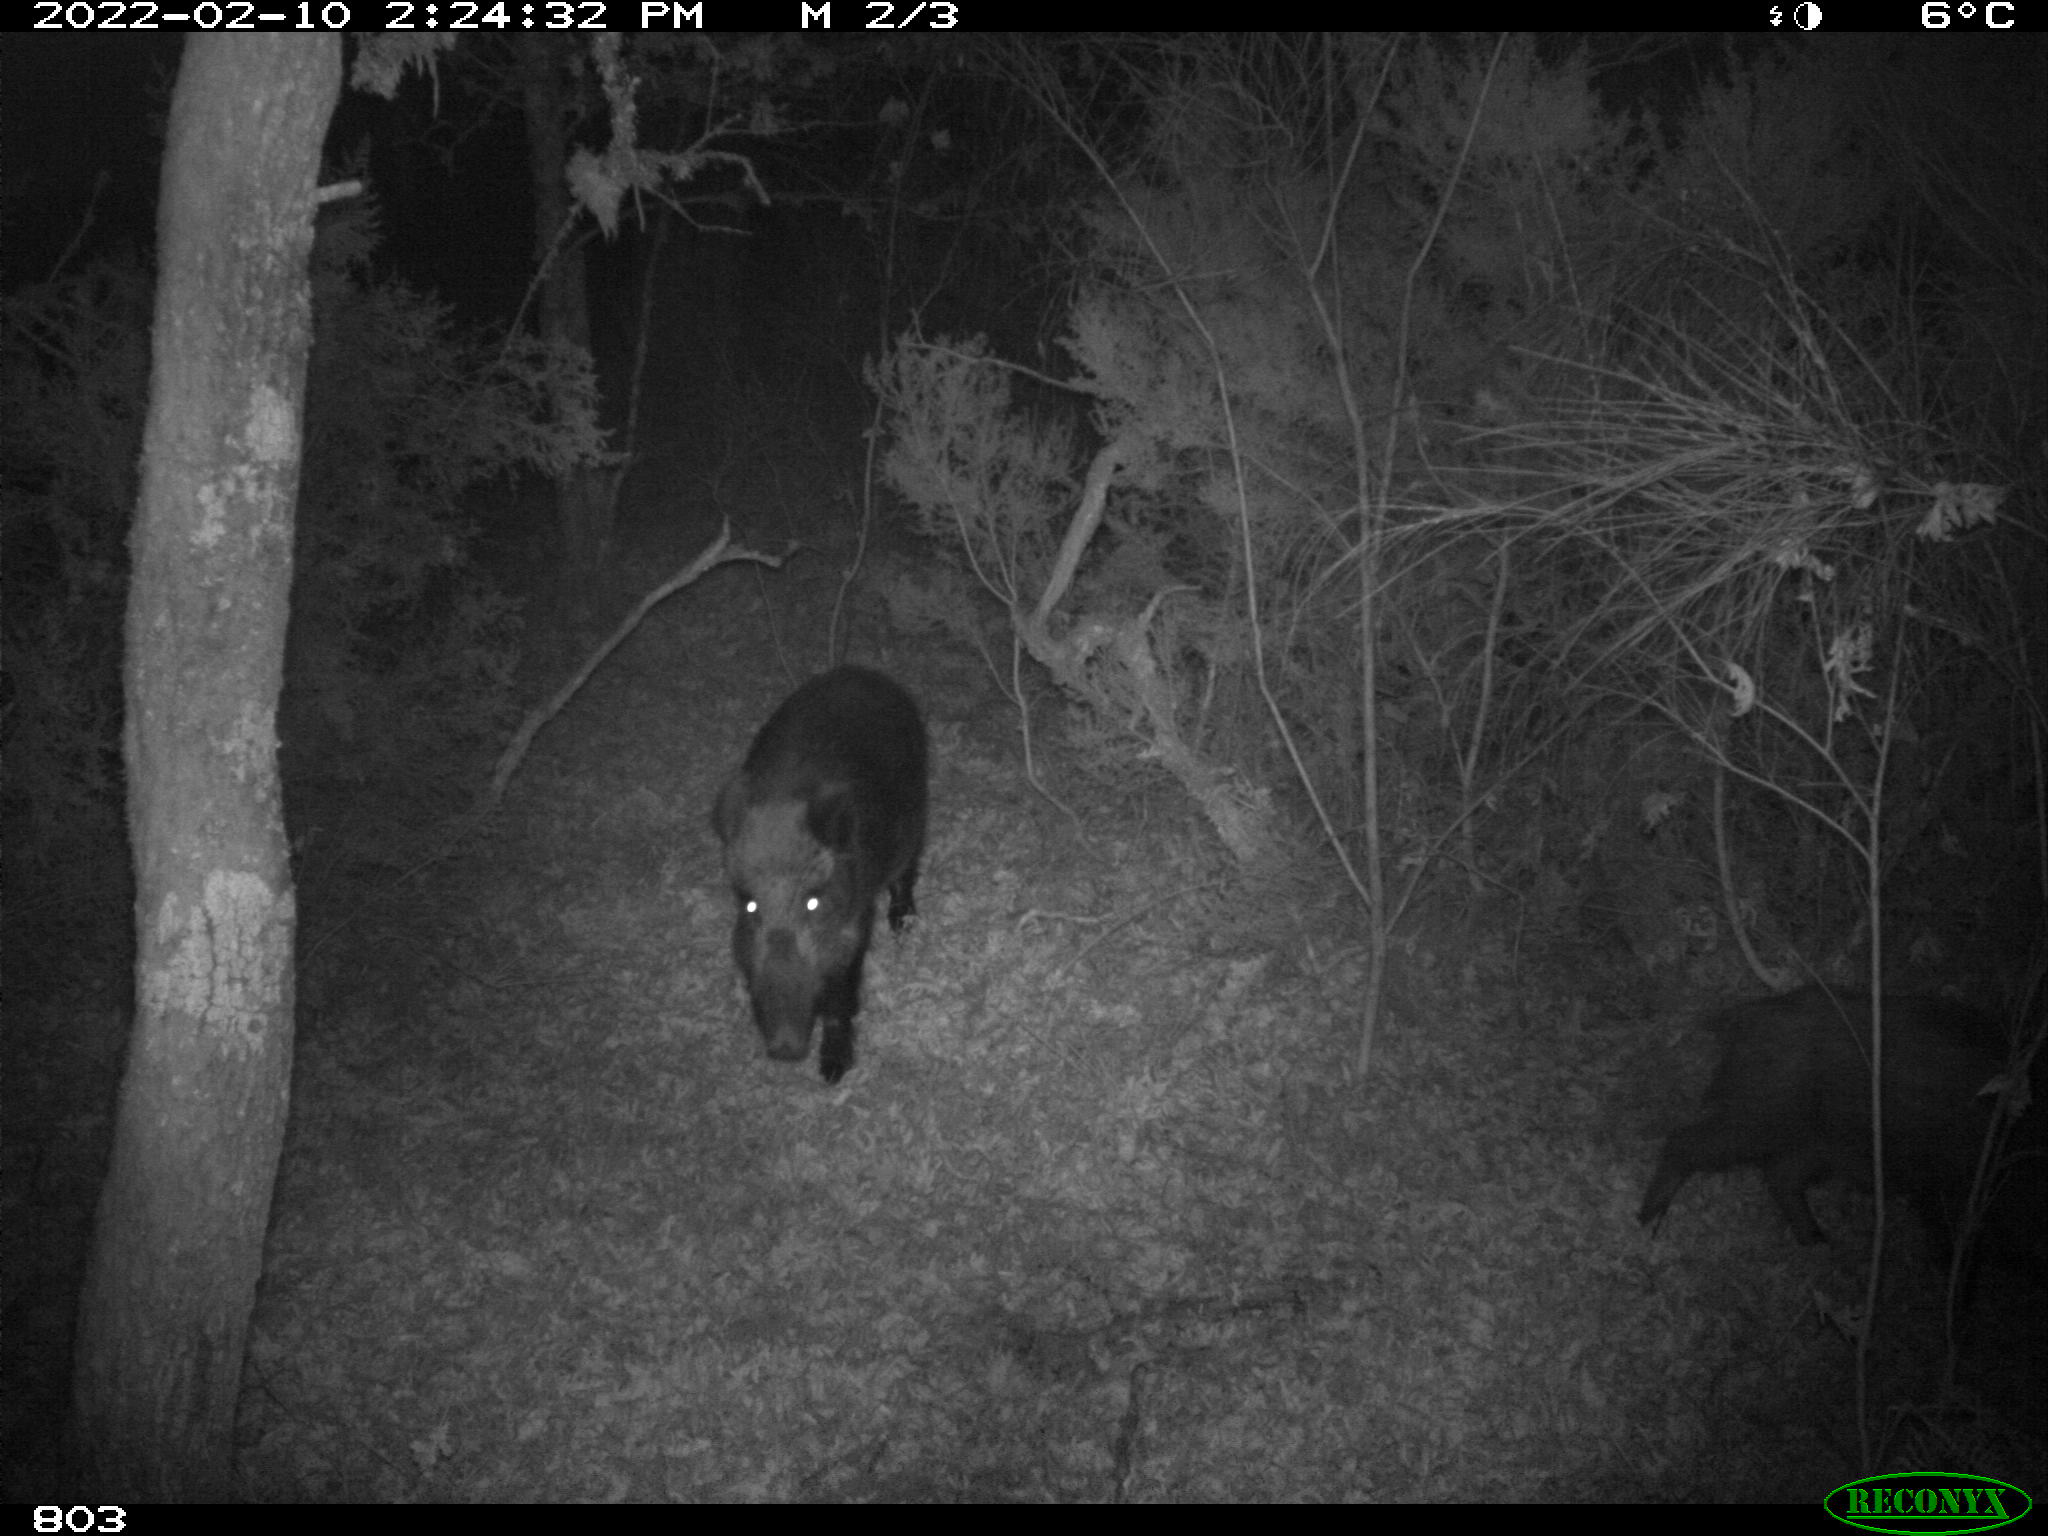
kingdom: Animalia
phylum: Chordata
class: Mammalia
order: Artiodactyla
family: Suidae
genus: Sus
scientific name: Sus scrofa
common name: Wild boar
